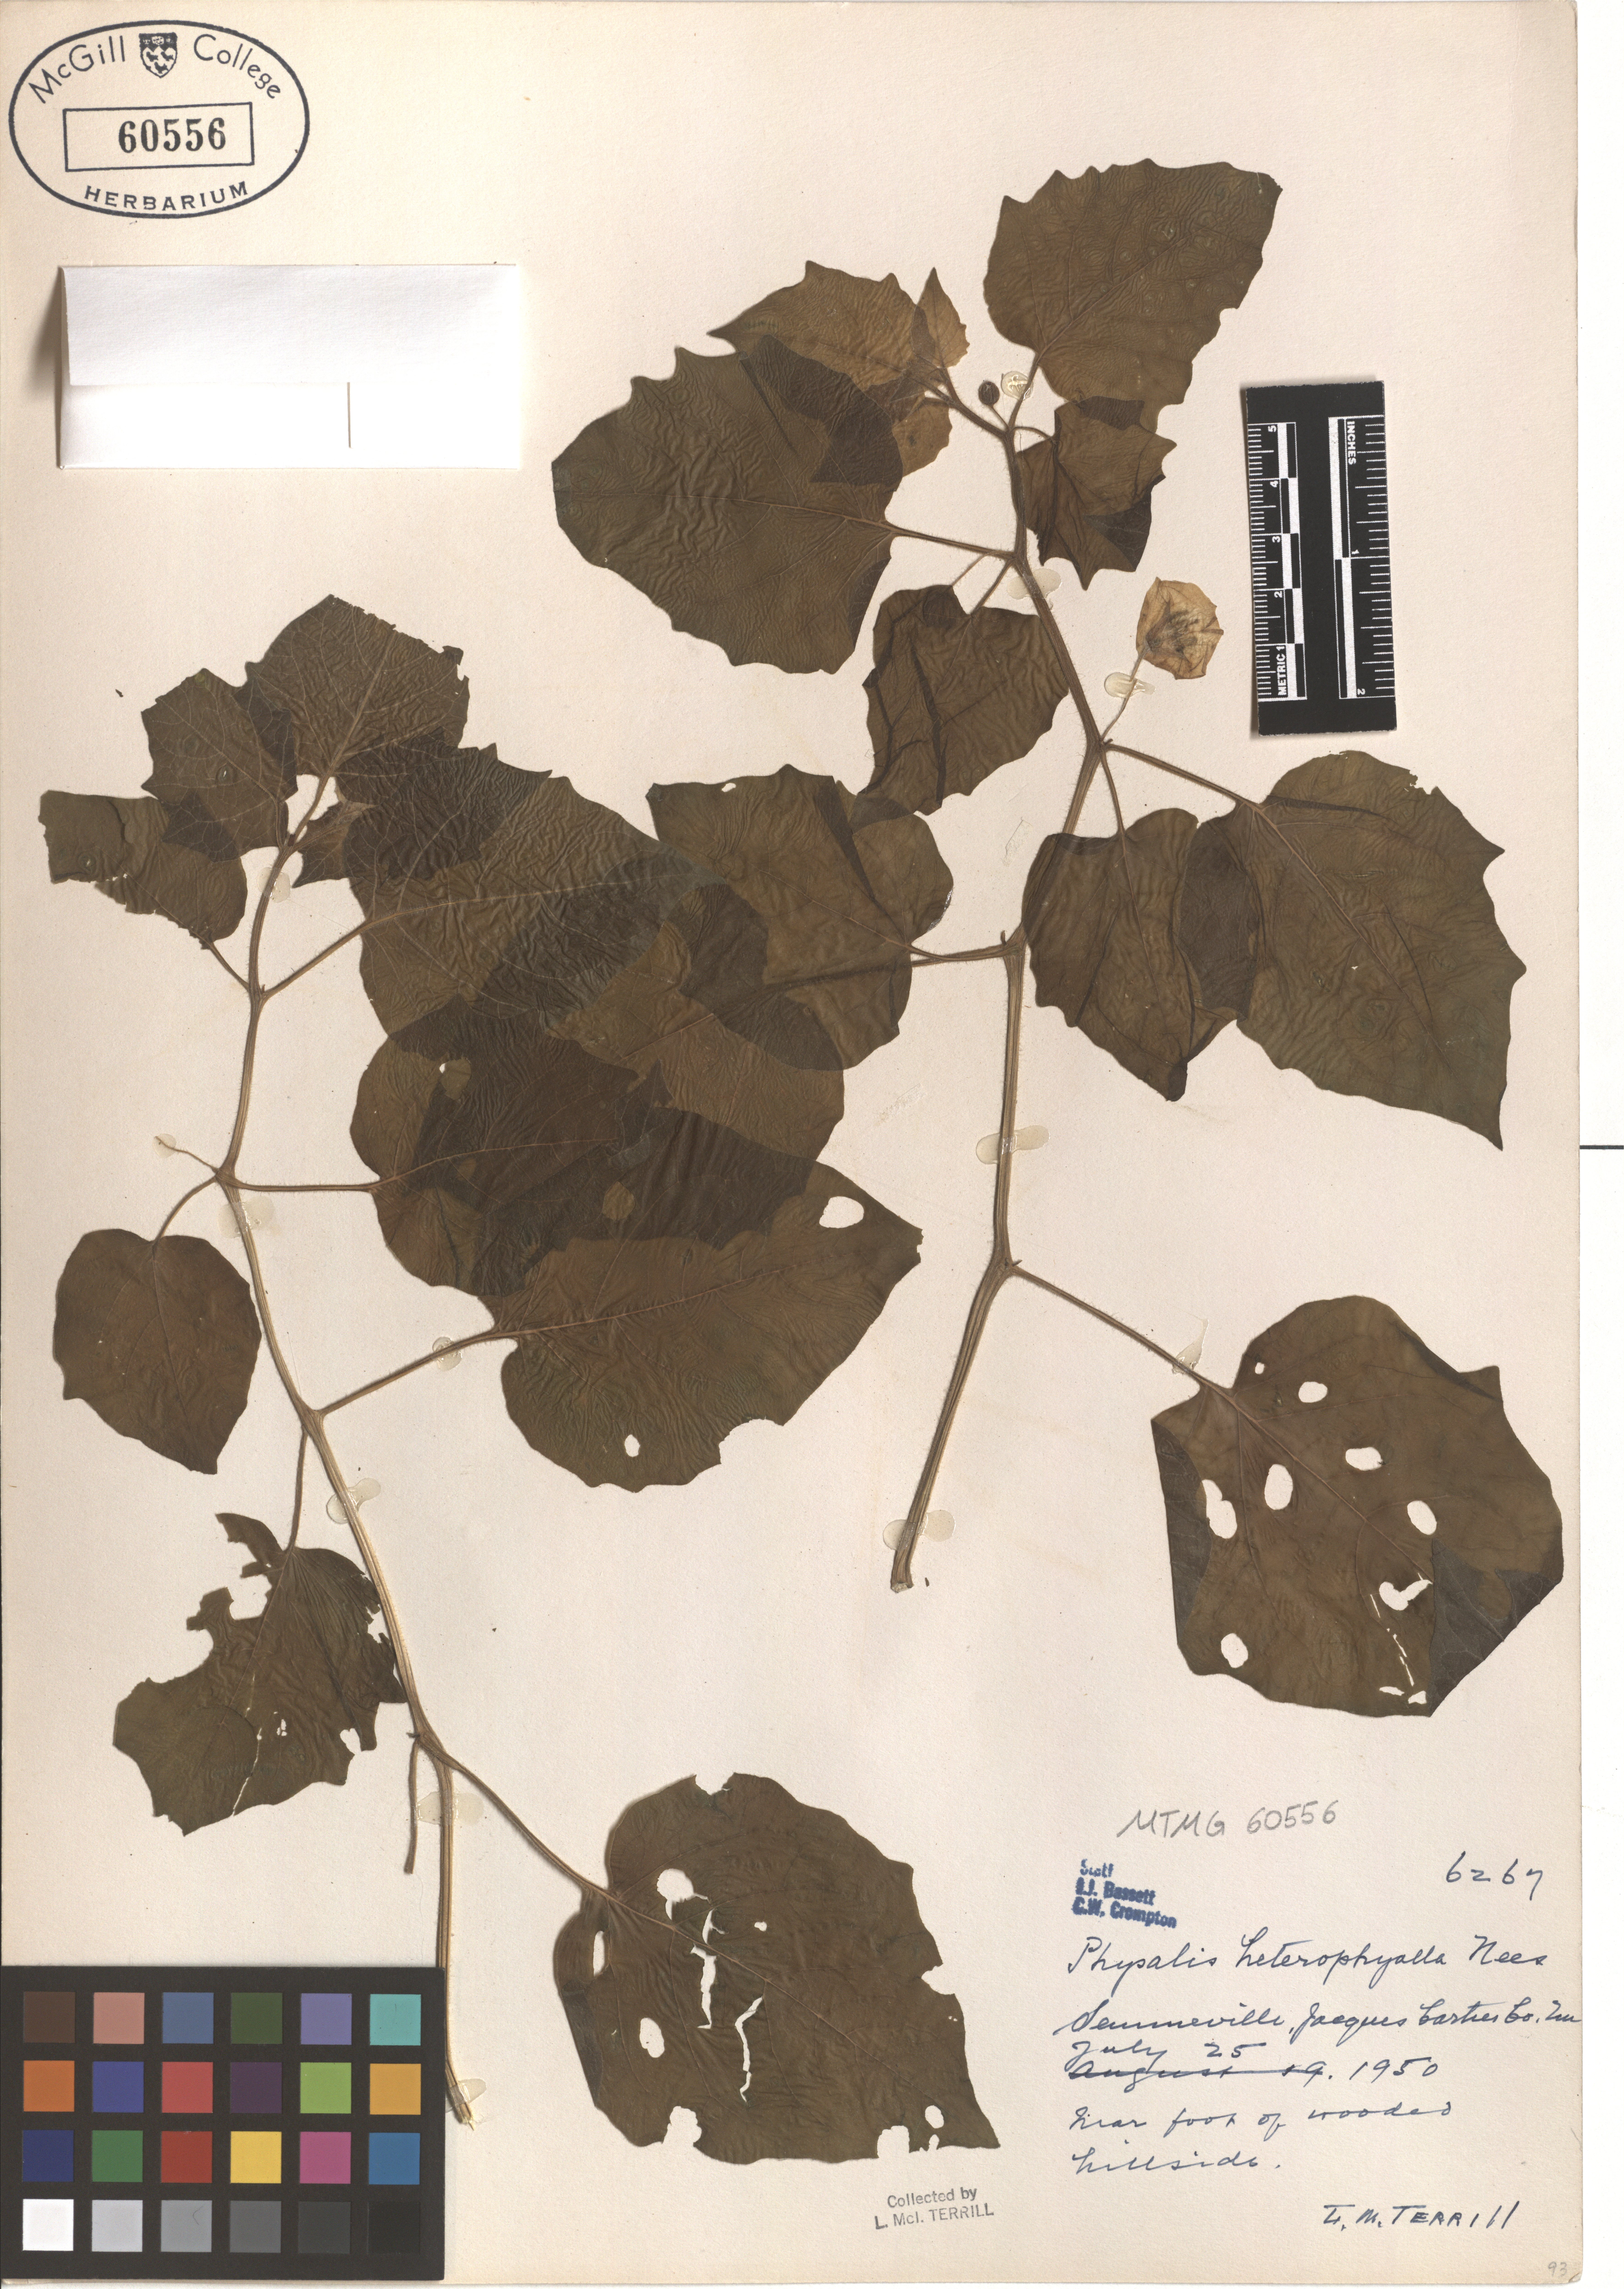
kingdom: Plantae
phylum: Tracheophyta
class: Magnoliopsida
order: Solanales
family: Solanaceae
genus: Physalis
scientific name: Physalis heterophylla
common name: Clammy ground-cherry
